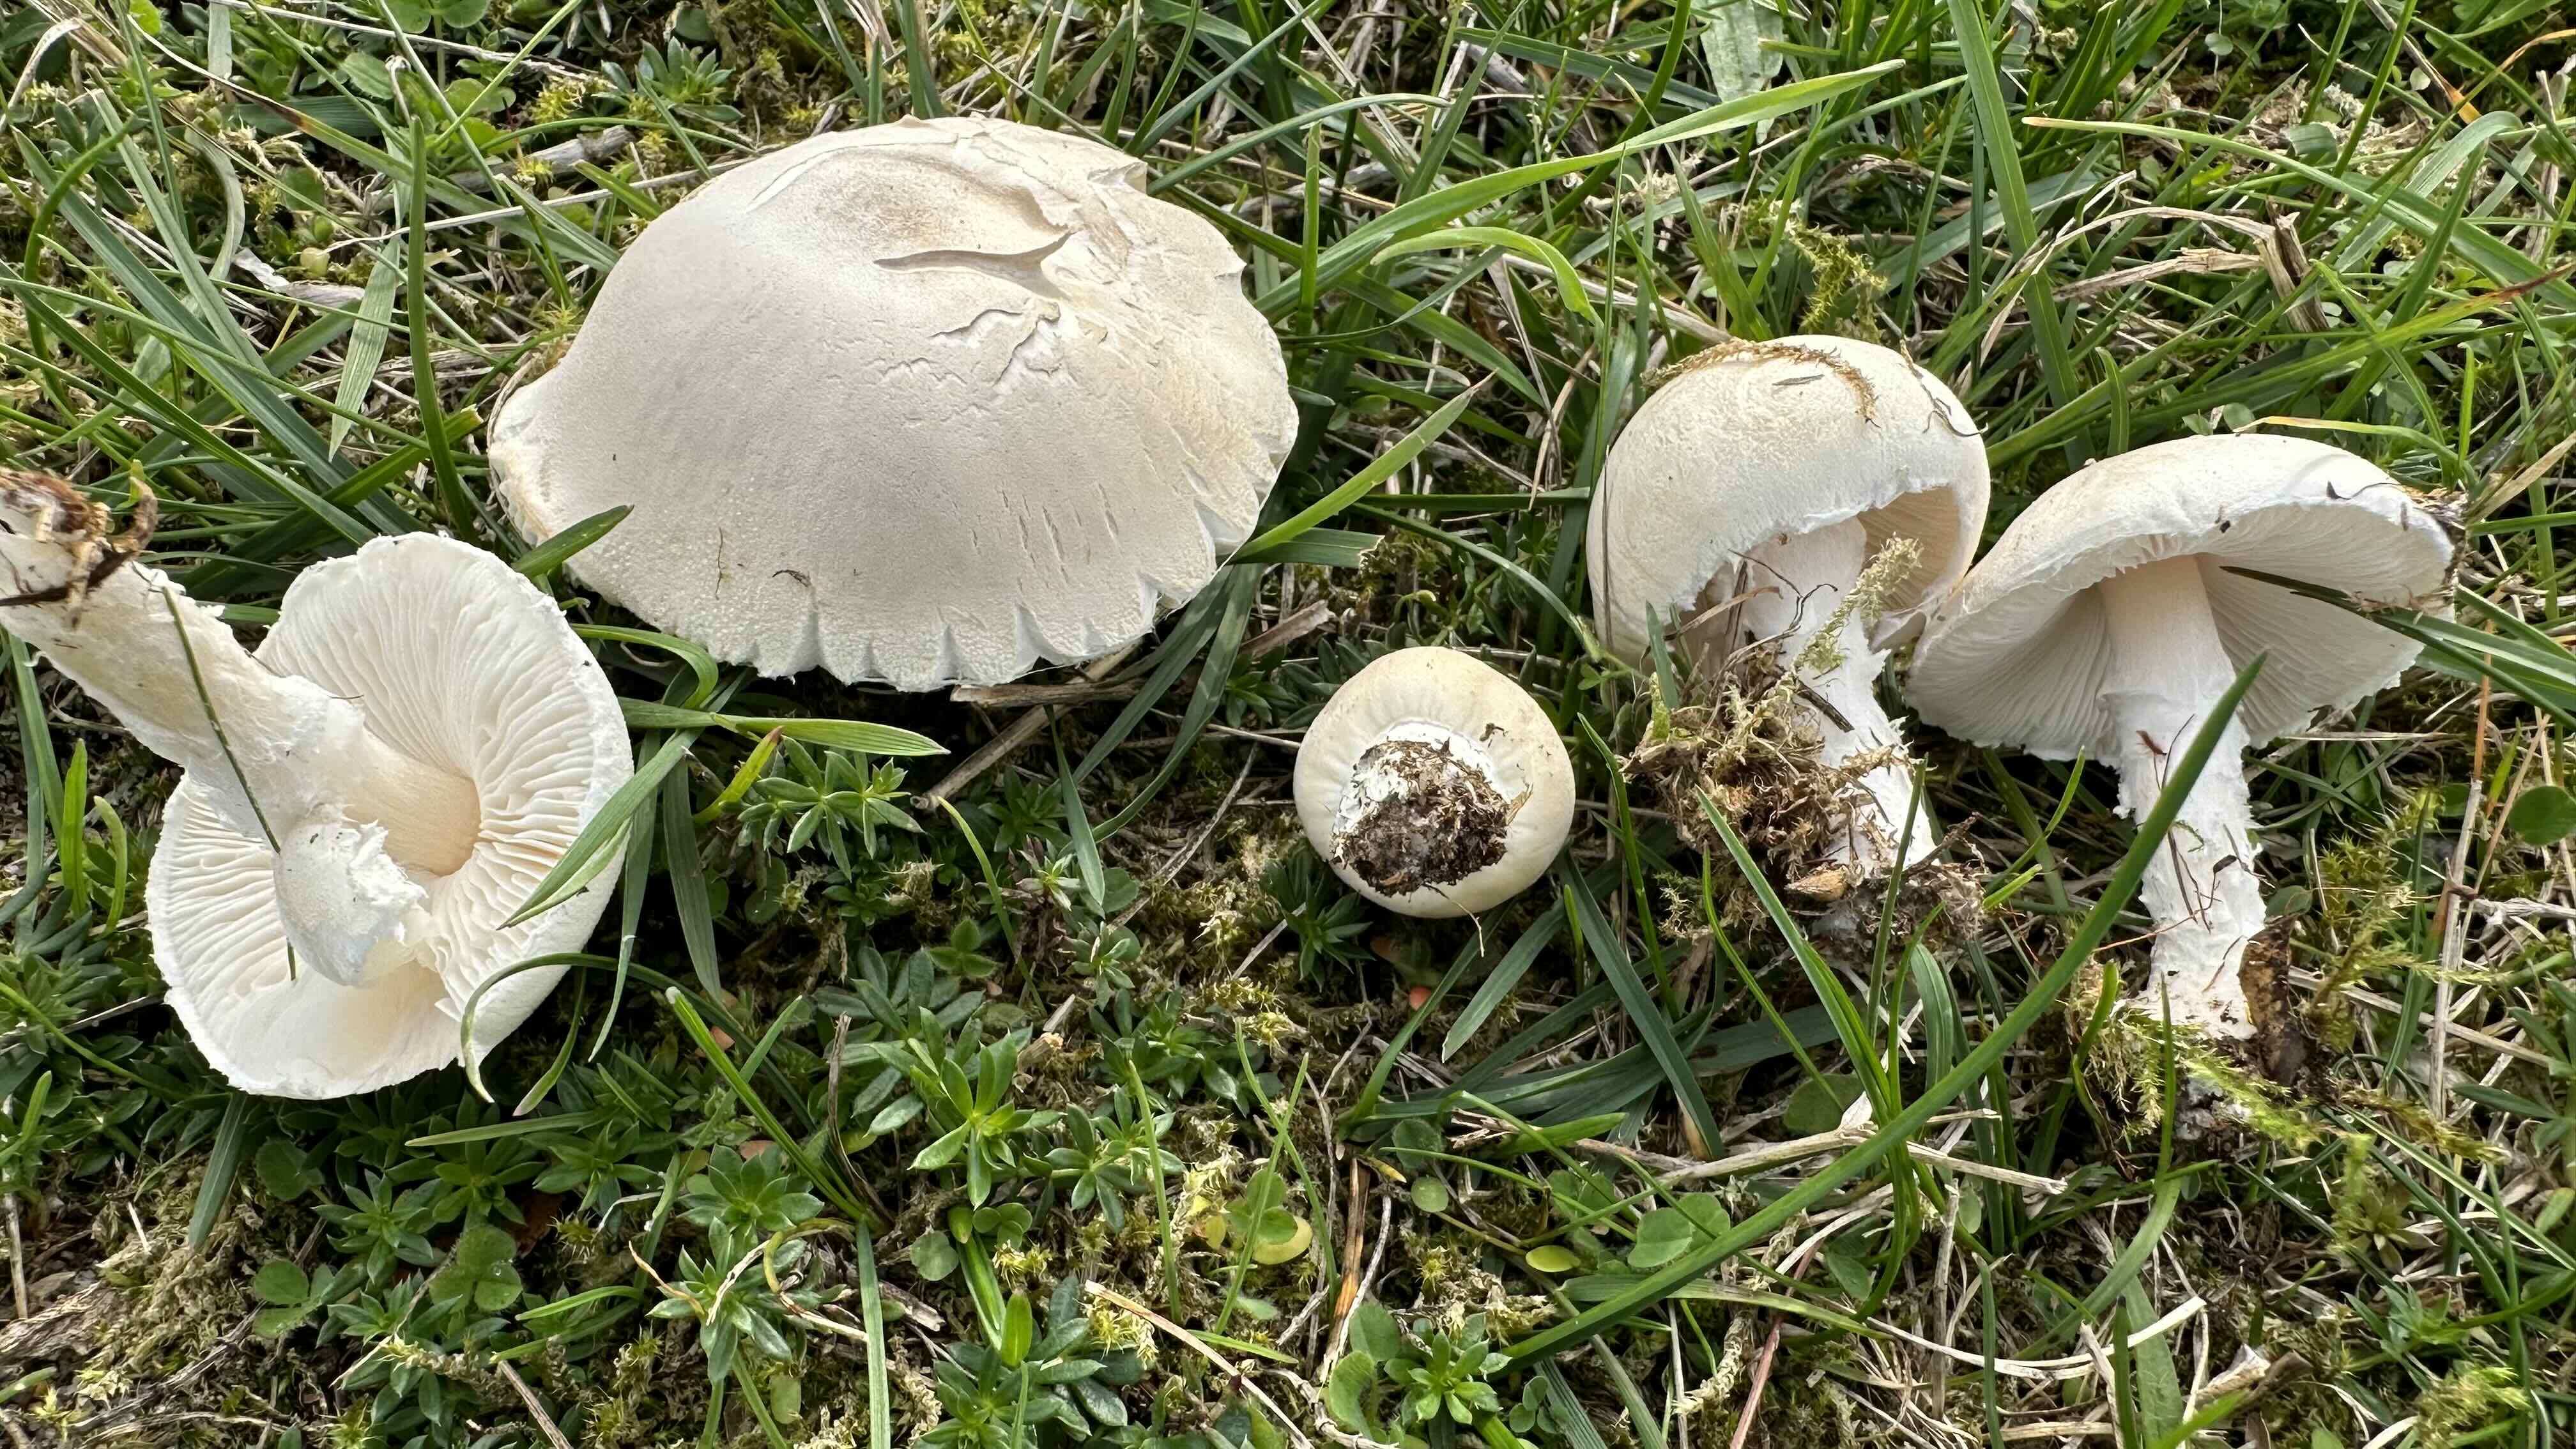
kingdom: Fungi
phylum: Basidiomycota
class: Agaricomycetes
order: Agaricales
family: Agaricaceae
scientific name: Agaricaceae
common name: champignonfamilien
